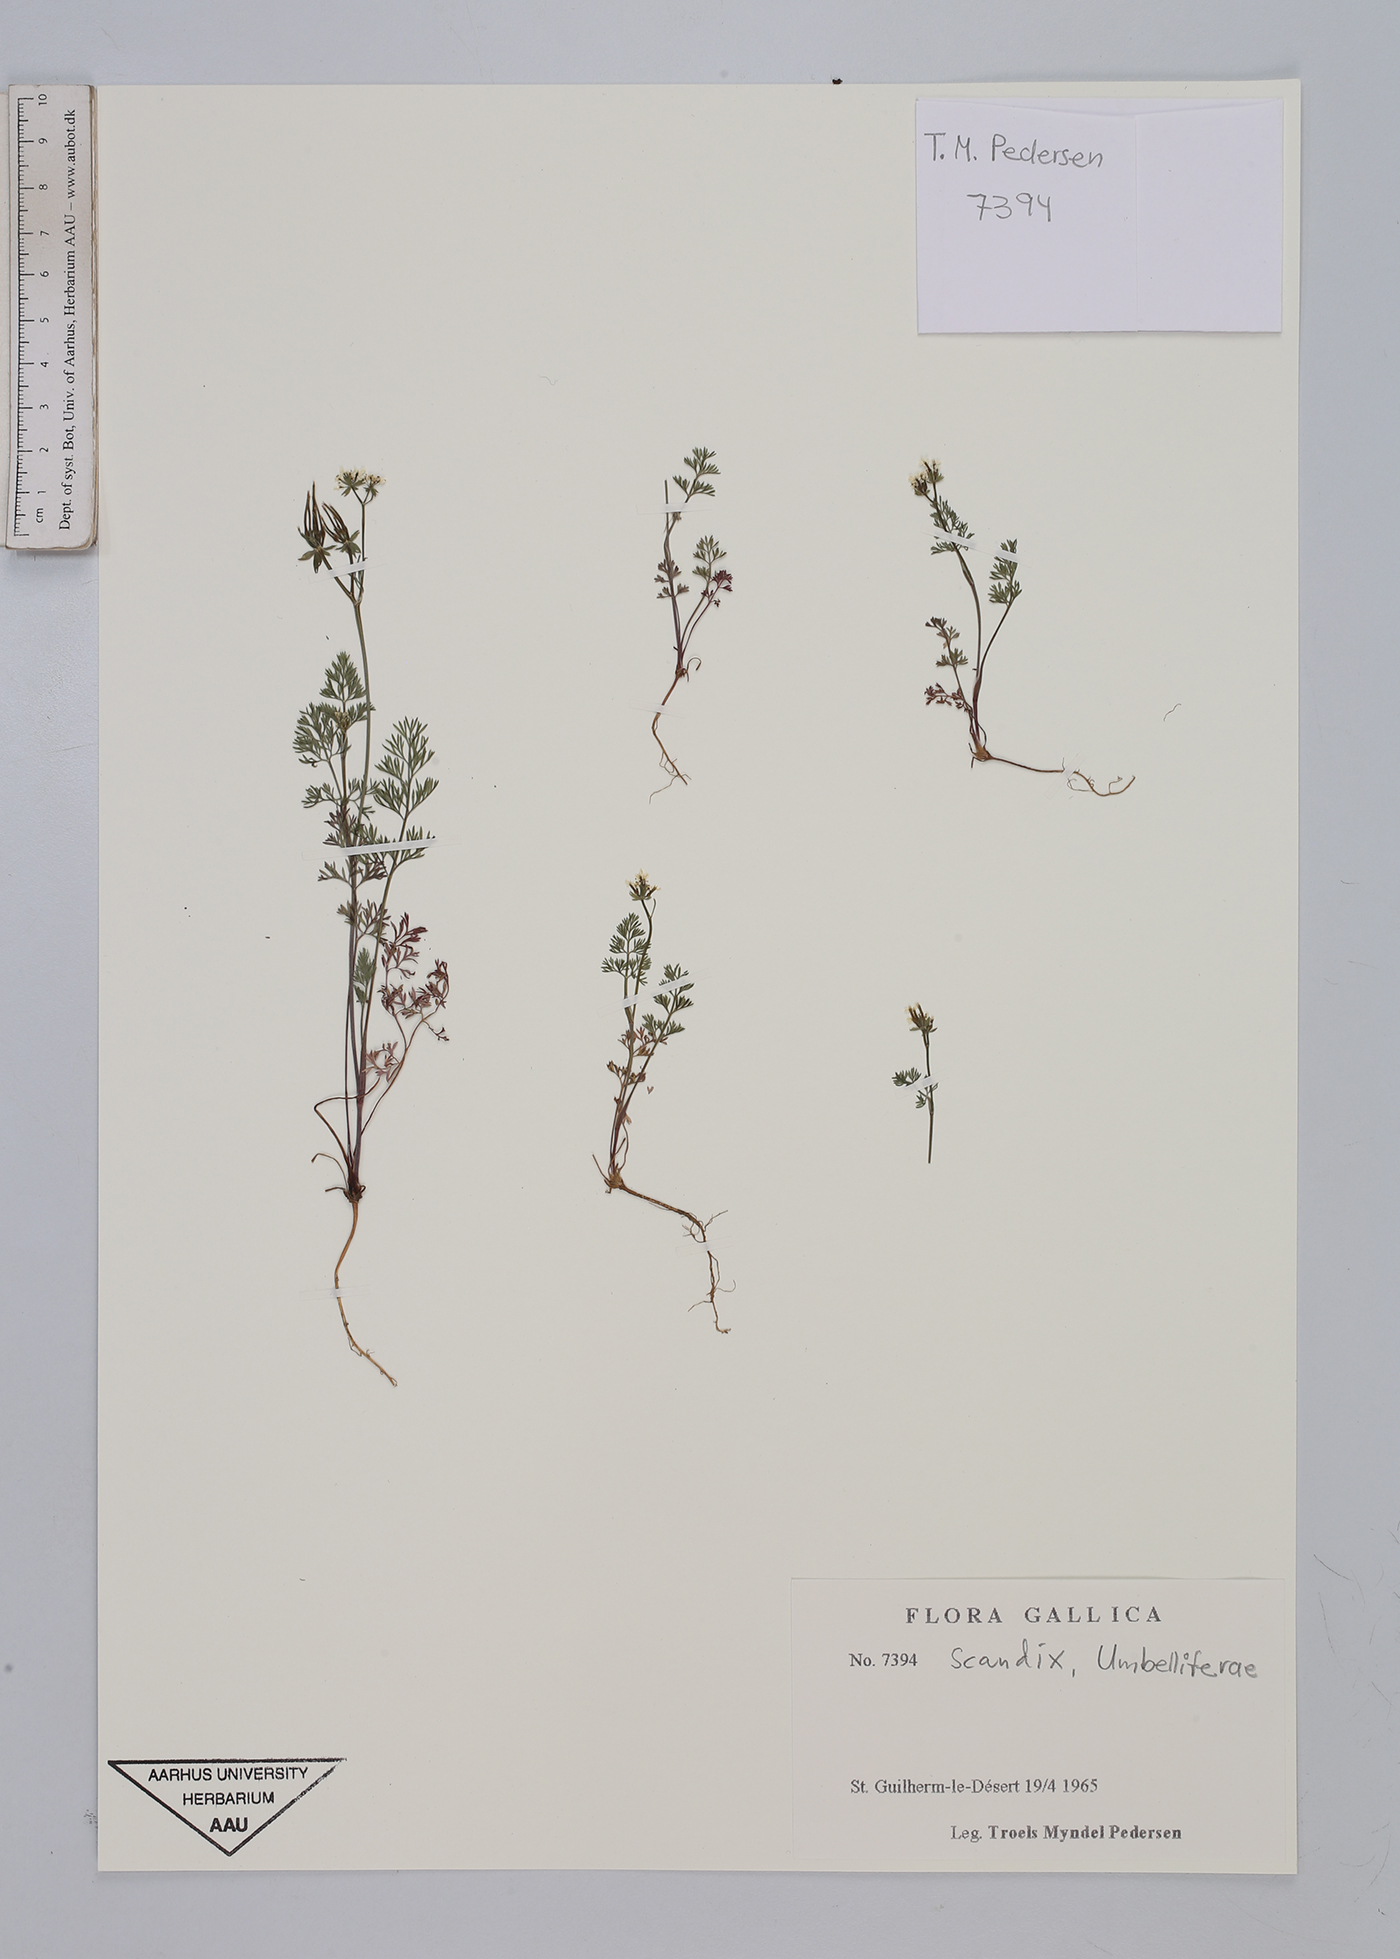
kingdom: Plantae
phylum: Tracheophyta
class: Magnoliopsida
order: Apiales
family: Apiaceae
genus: Scandix
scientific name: Scandix
